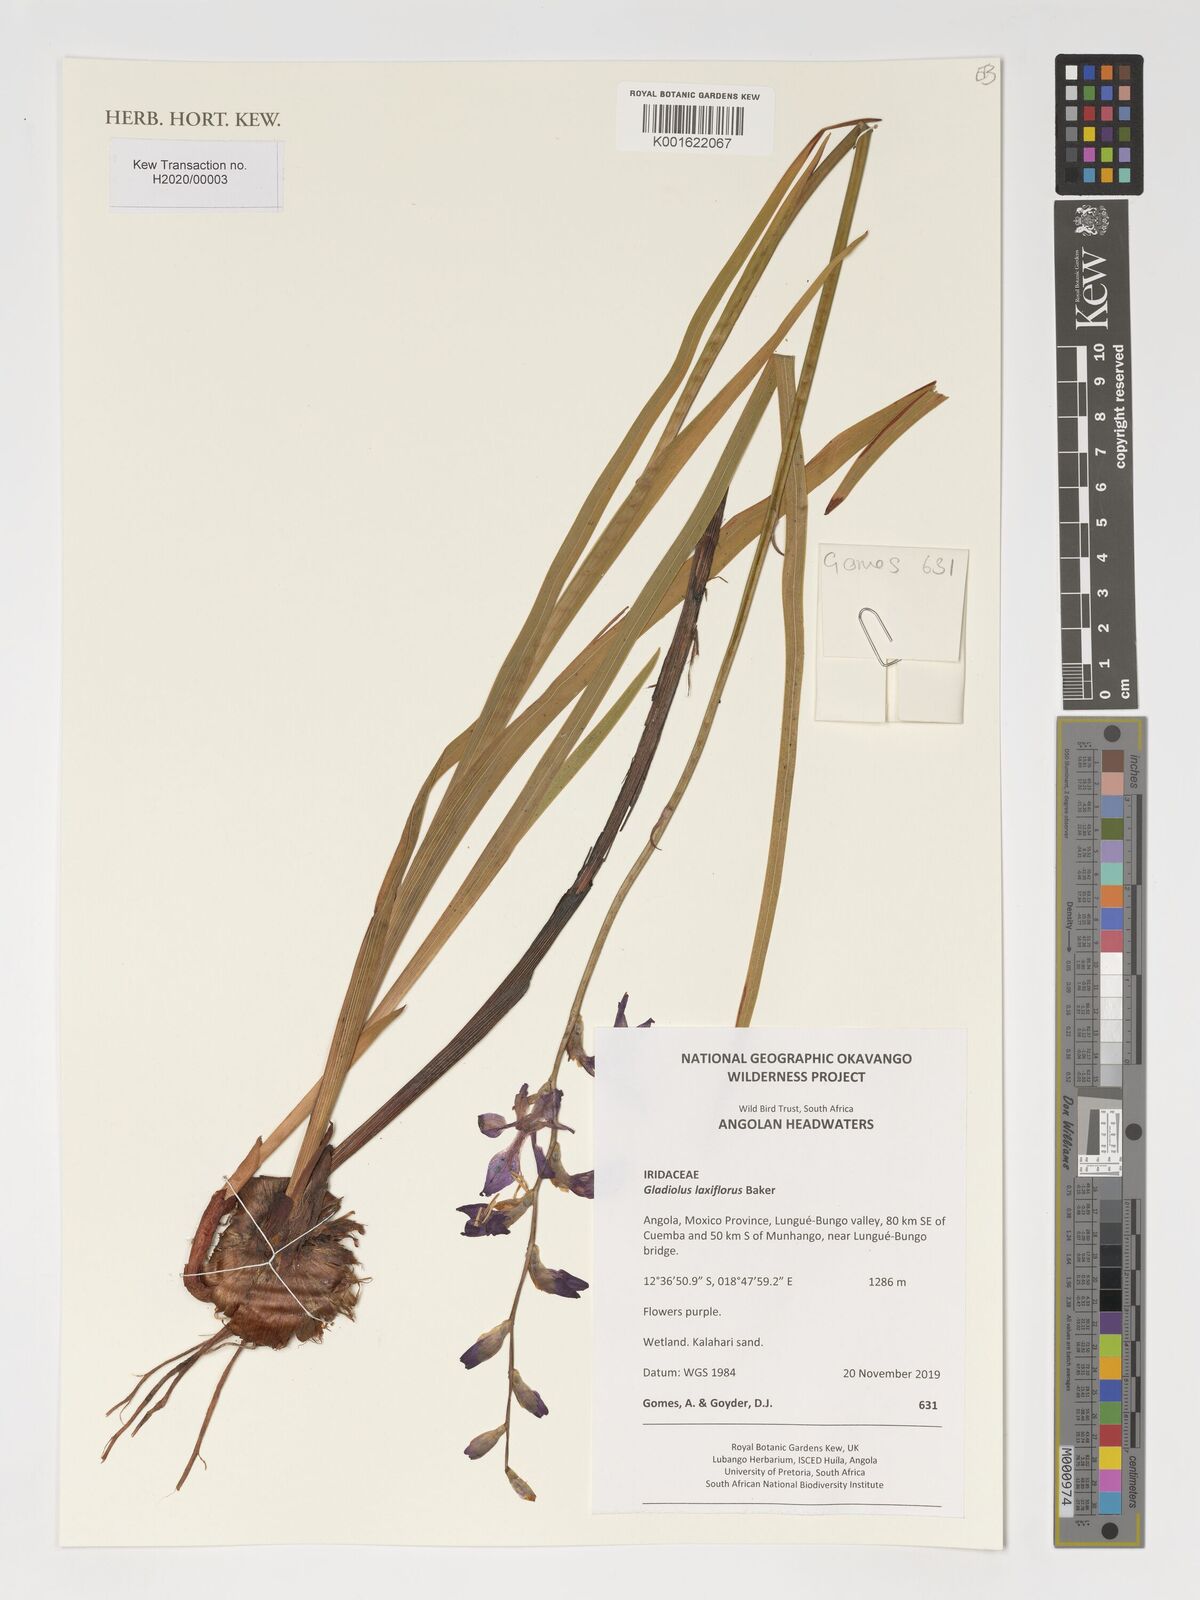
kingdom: Plantae
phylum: Tracheophyta
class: Liliopsida
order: Asparagales
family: Iridaceae
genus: Gladiolus
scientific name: Gladiolus laxiflorus
